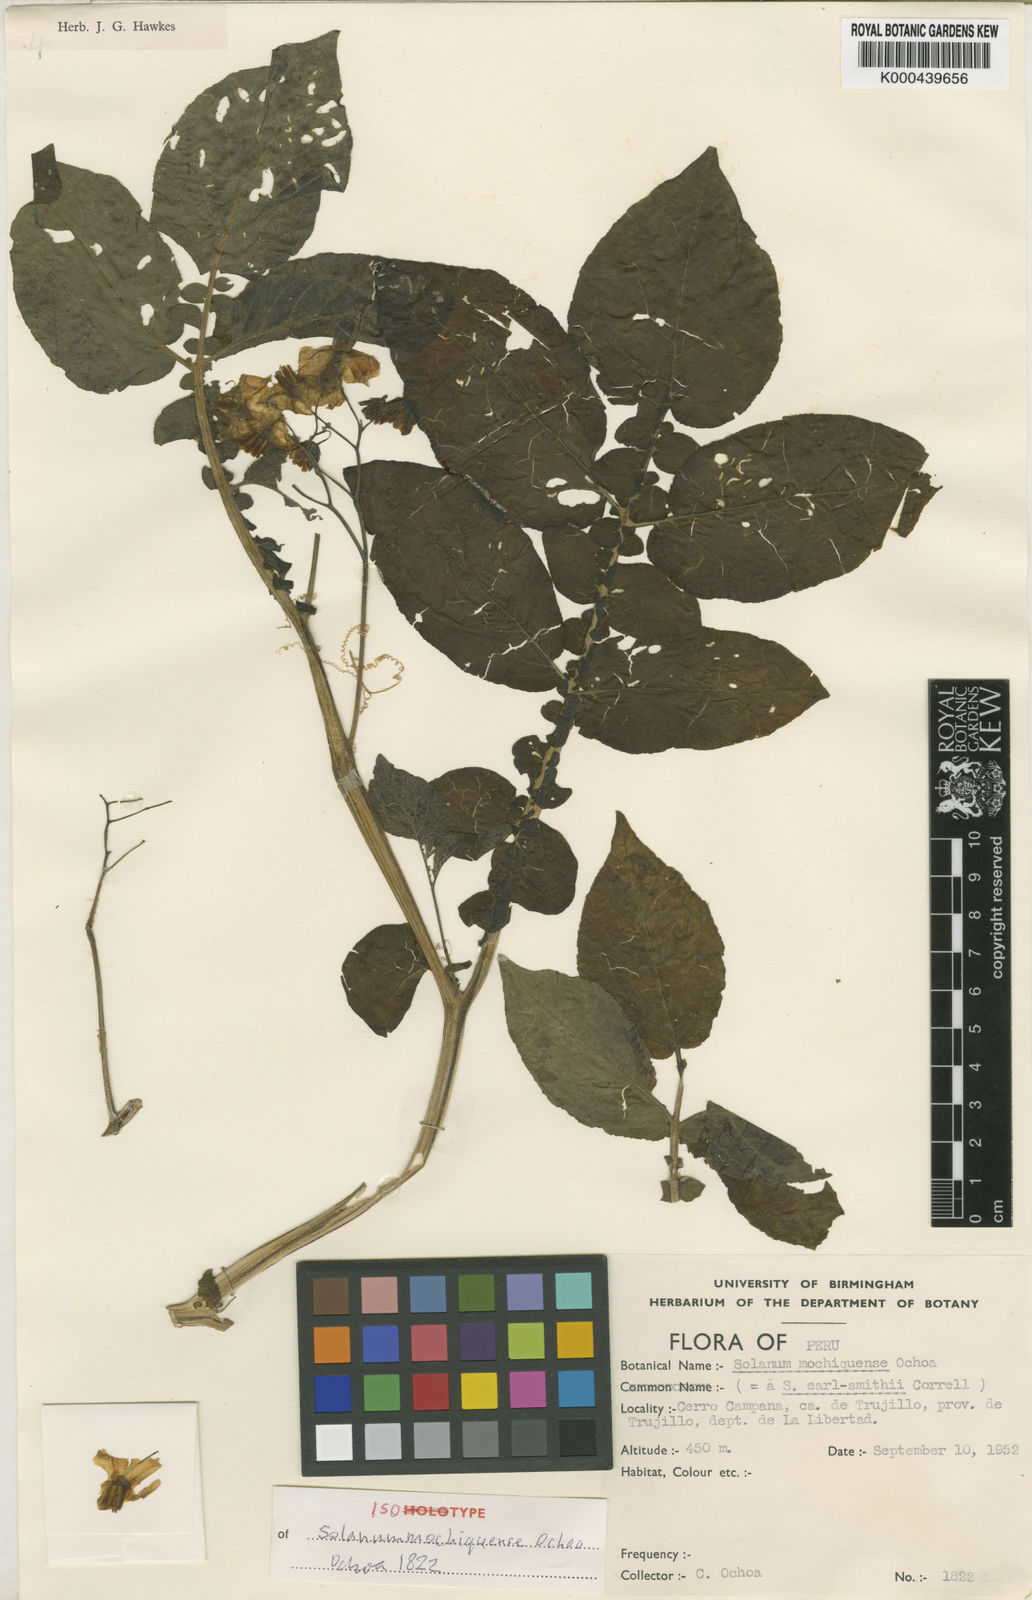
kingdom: Plantae
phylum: Tracheophyta
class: Magnoliopsida
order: Solanales
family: Solanaceae
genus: Solanum
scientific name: Solanum mochiquense
